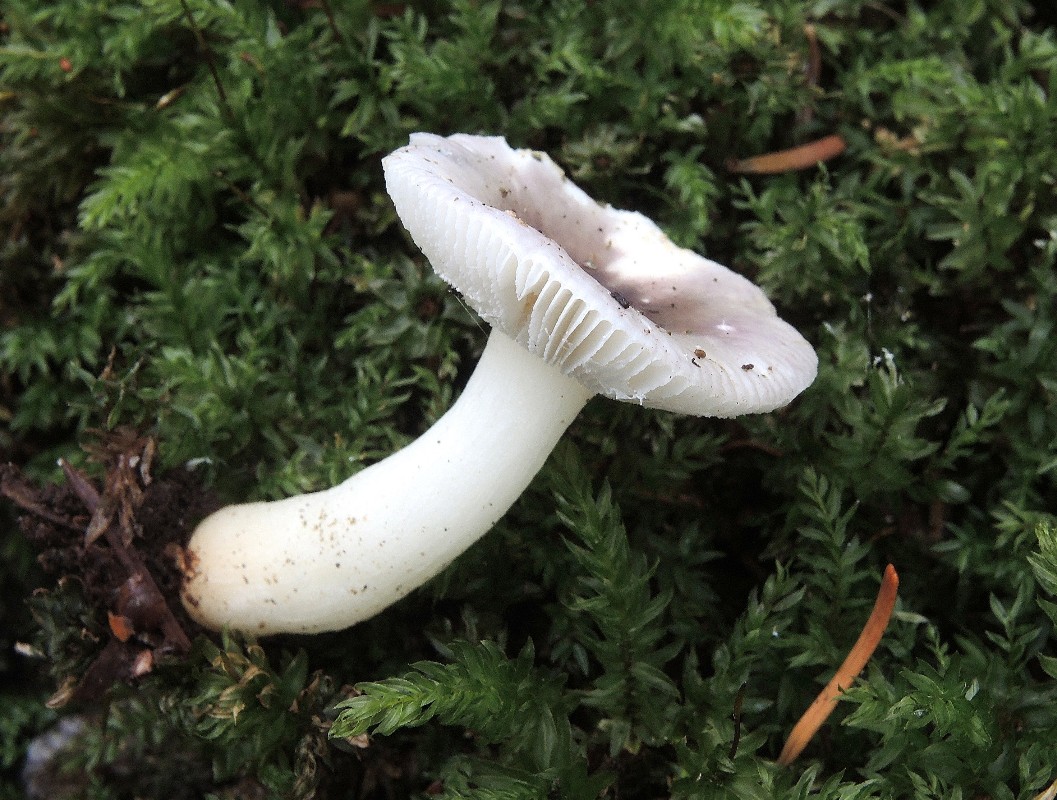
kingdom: Fungi
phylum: Basidiomycota
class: Agaricomycetes
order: Russulales
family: Russulaceae
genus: Russula
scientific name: Russula fragilis
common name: savbladet skørhat
